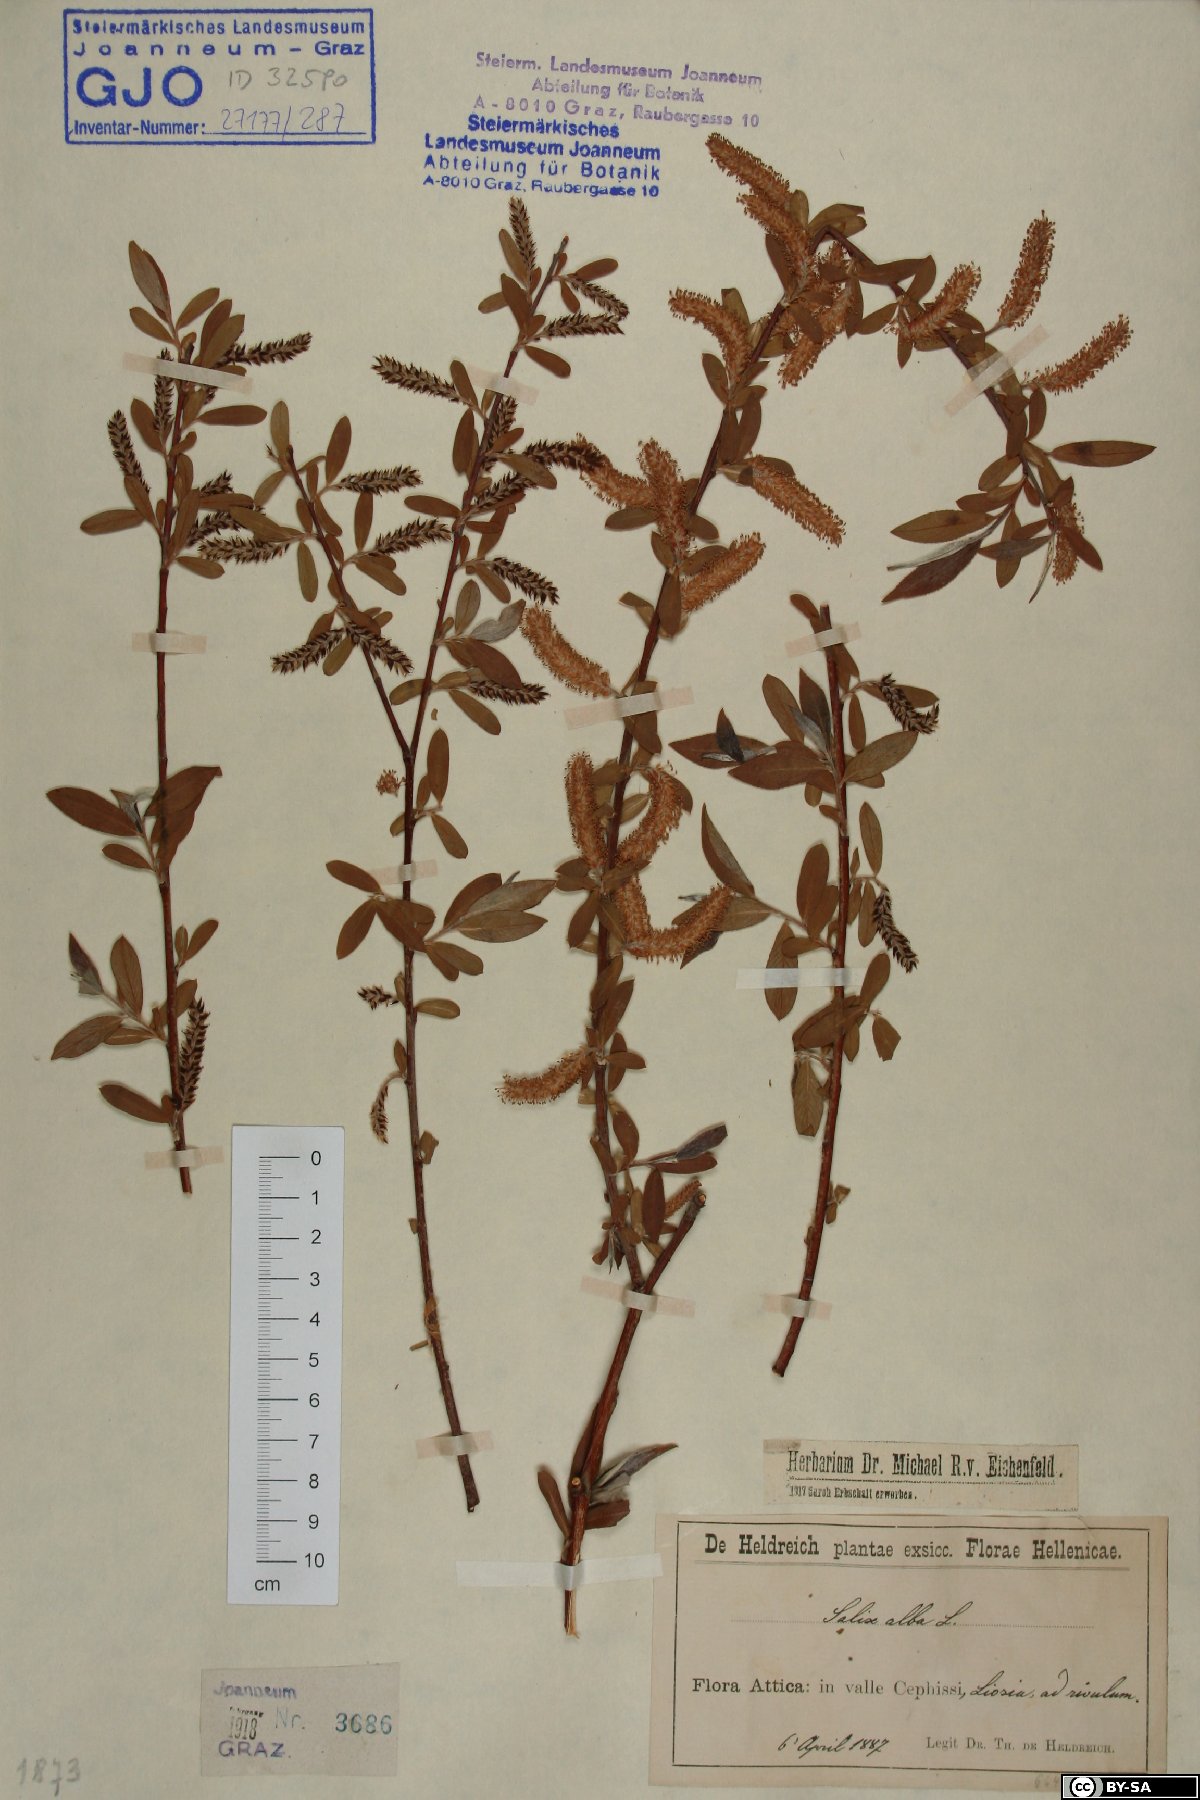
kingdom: Plantae
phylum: Tracheophyta
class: Magnoliopsida
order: Malpighiales
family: Salicaceae
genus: Salix
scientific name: Salix alba
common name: White willow
